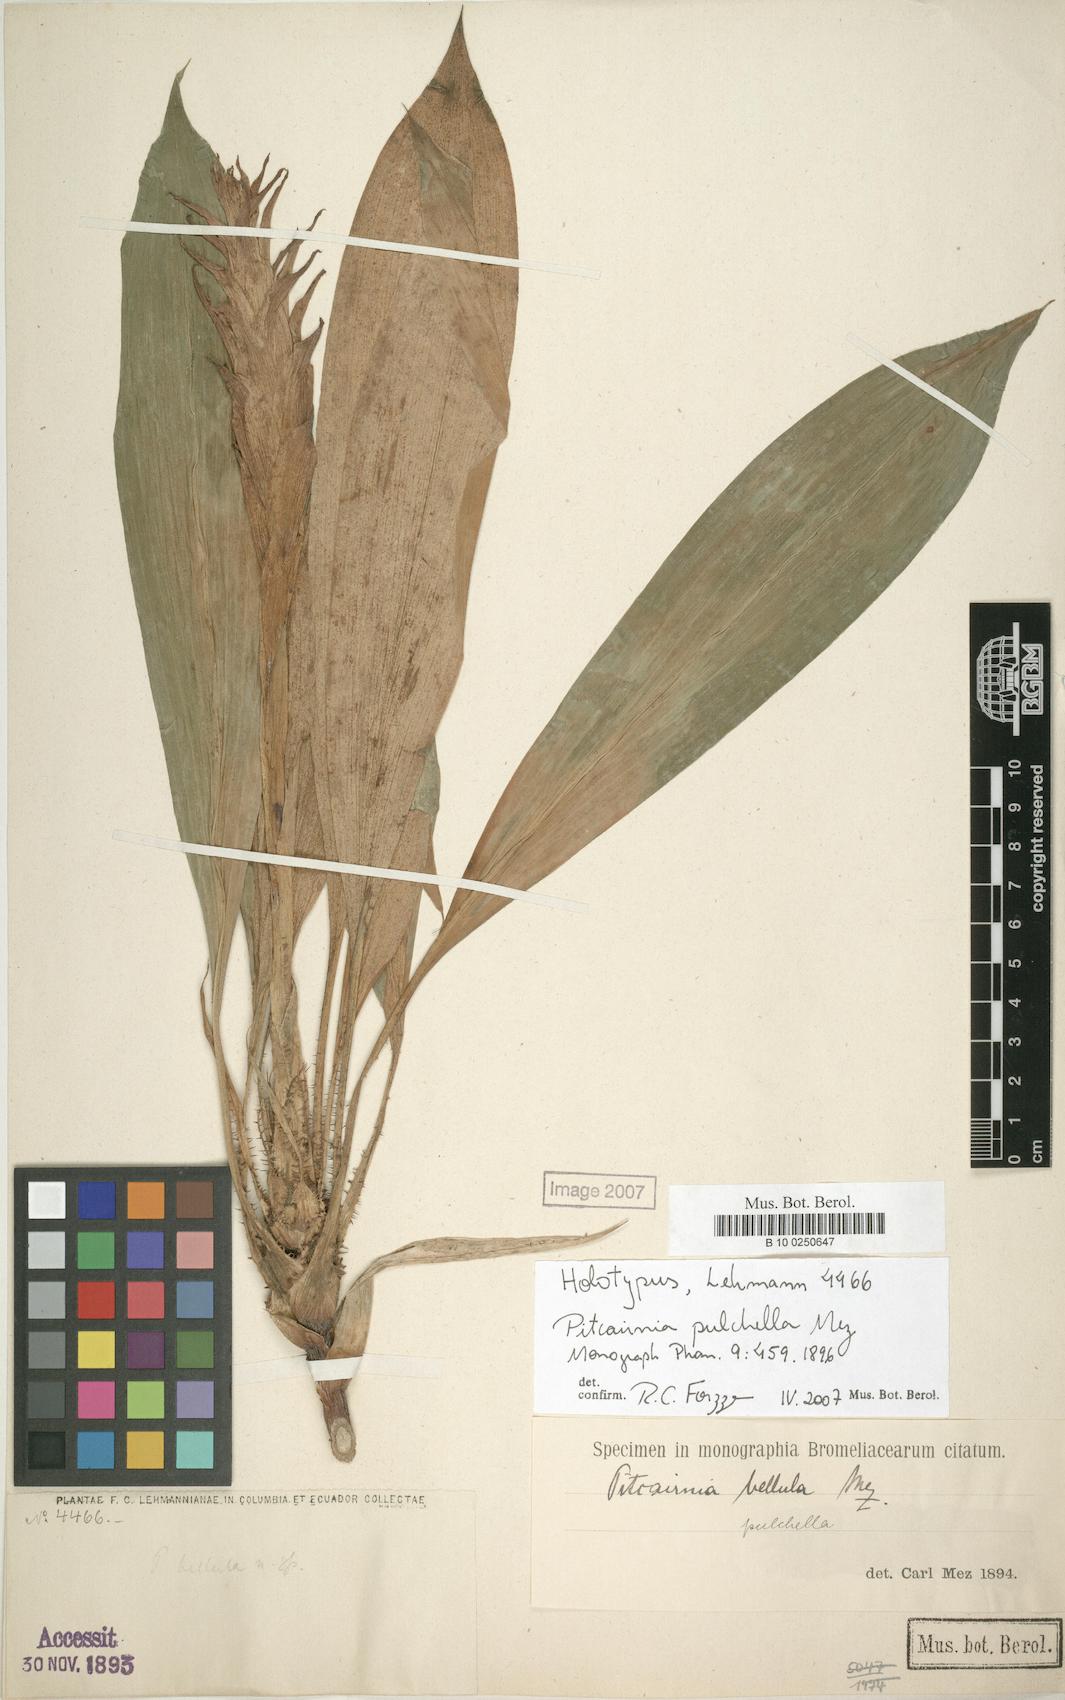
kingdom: Plantae
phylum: Tracheophyta
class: Liliopsida
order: Poales
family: Bromeliaceae
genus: Pitcairnia
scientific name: Pitcairnia nigra
